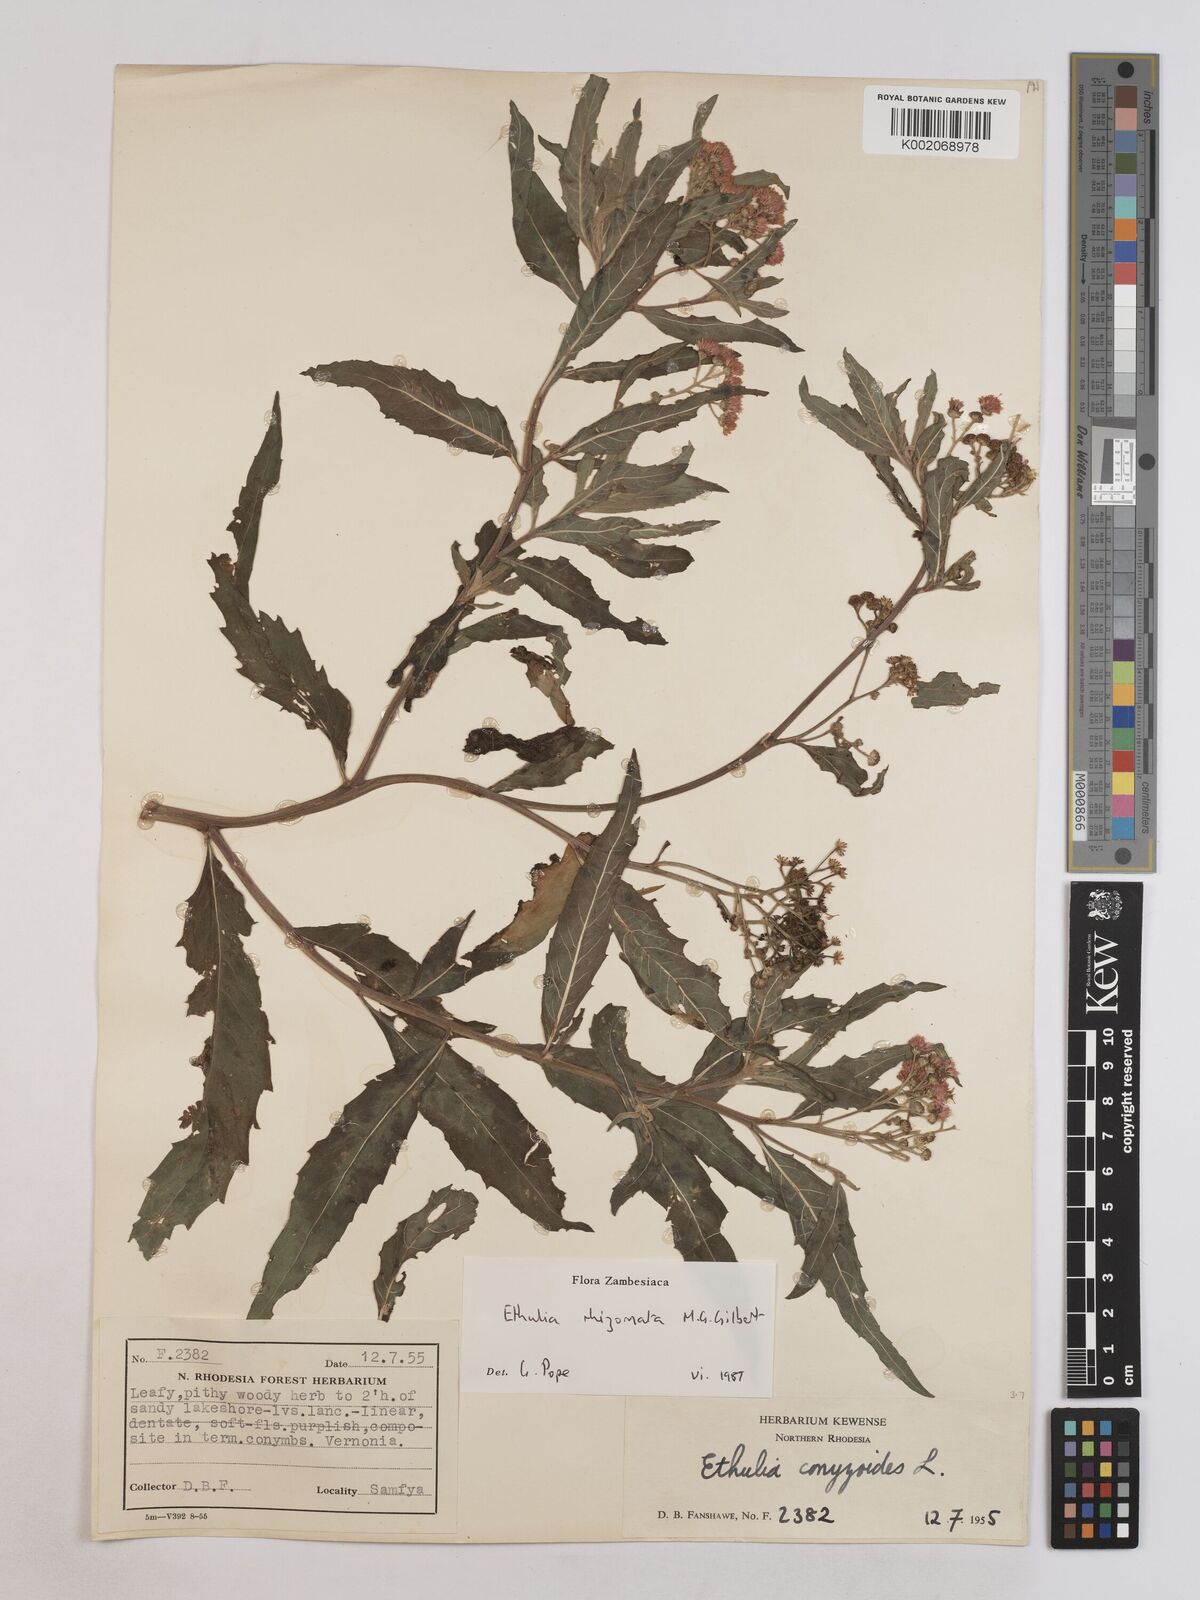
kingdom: Plantae
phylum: Tracheophyta
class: Magnoliopsida
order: Asterales
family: Asteraceae
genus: Ethulia
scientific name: Ethulia rhizomata
